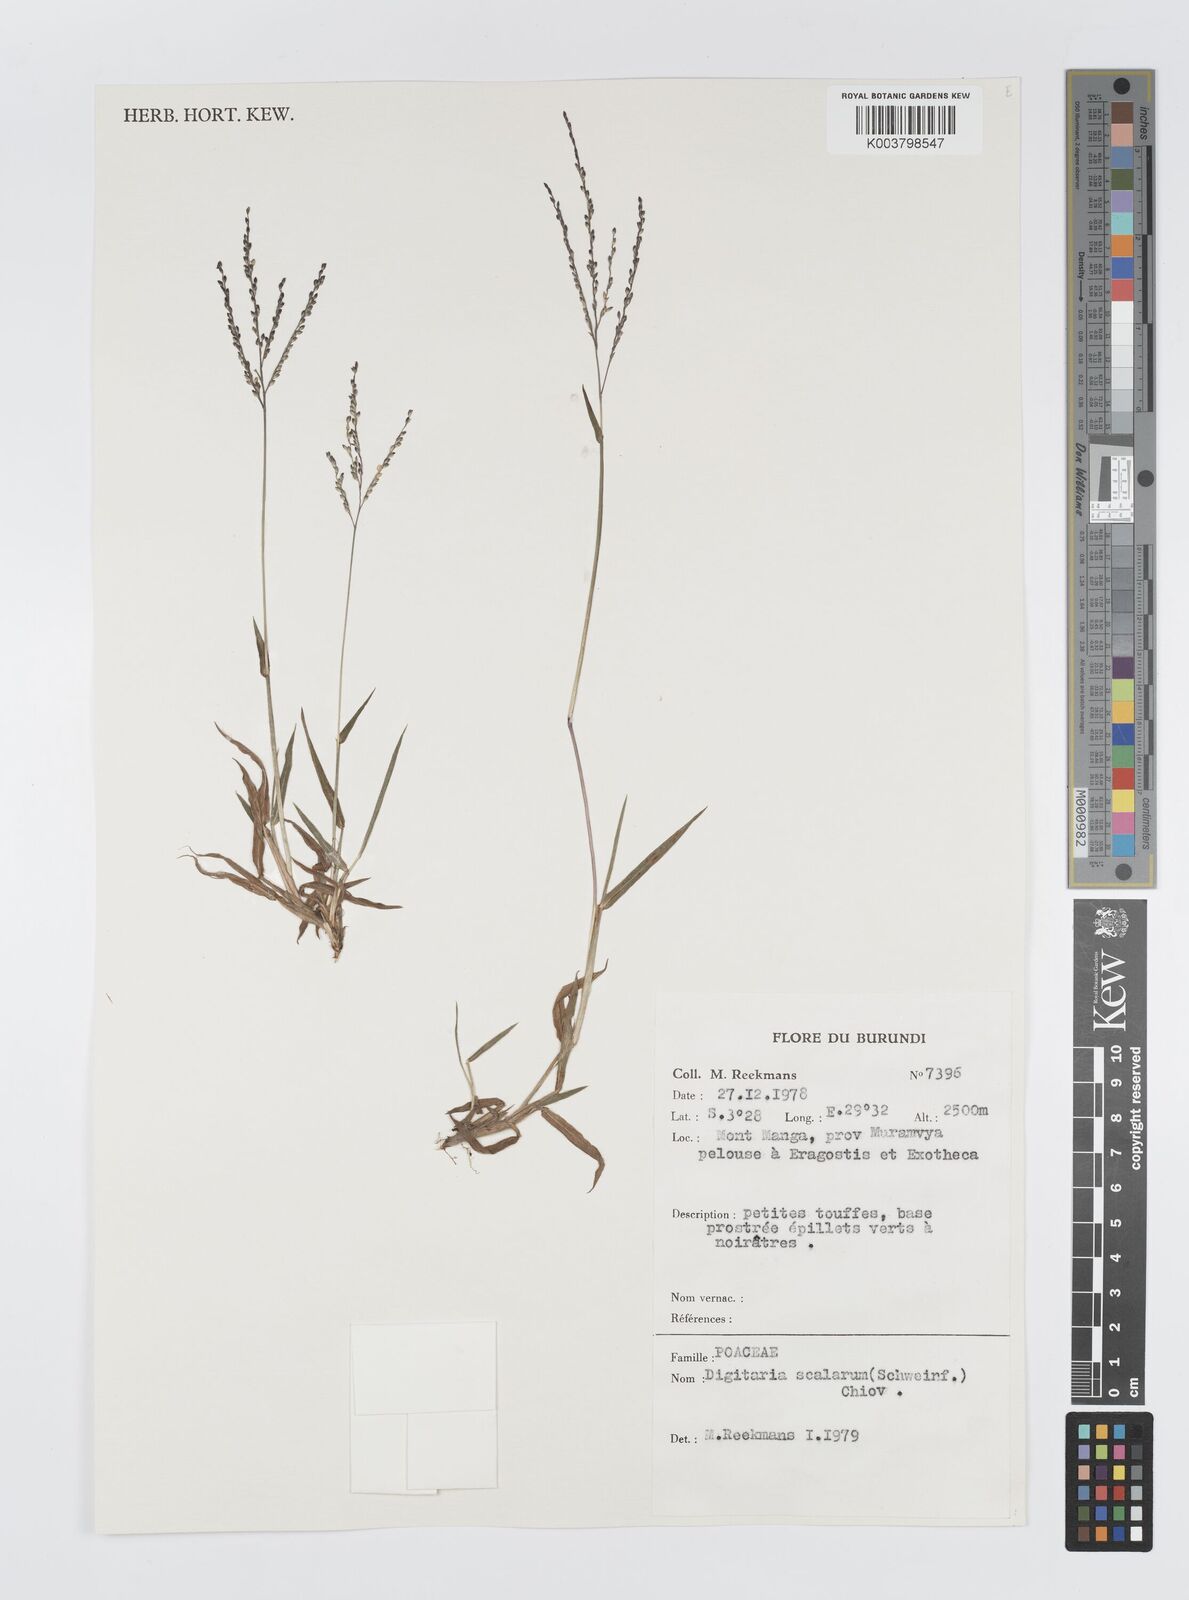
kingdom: Plantae
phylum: Tracheophyta
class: Liliopsida
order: Poales
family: Poaceae
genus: Digitaria
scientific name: Digitaria abyssinica
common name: African couchgrass
